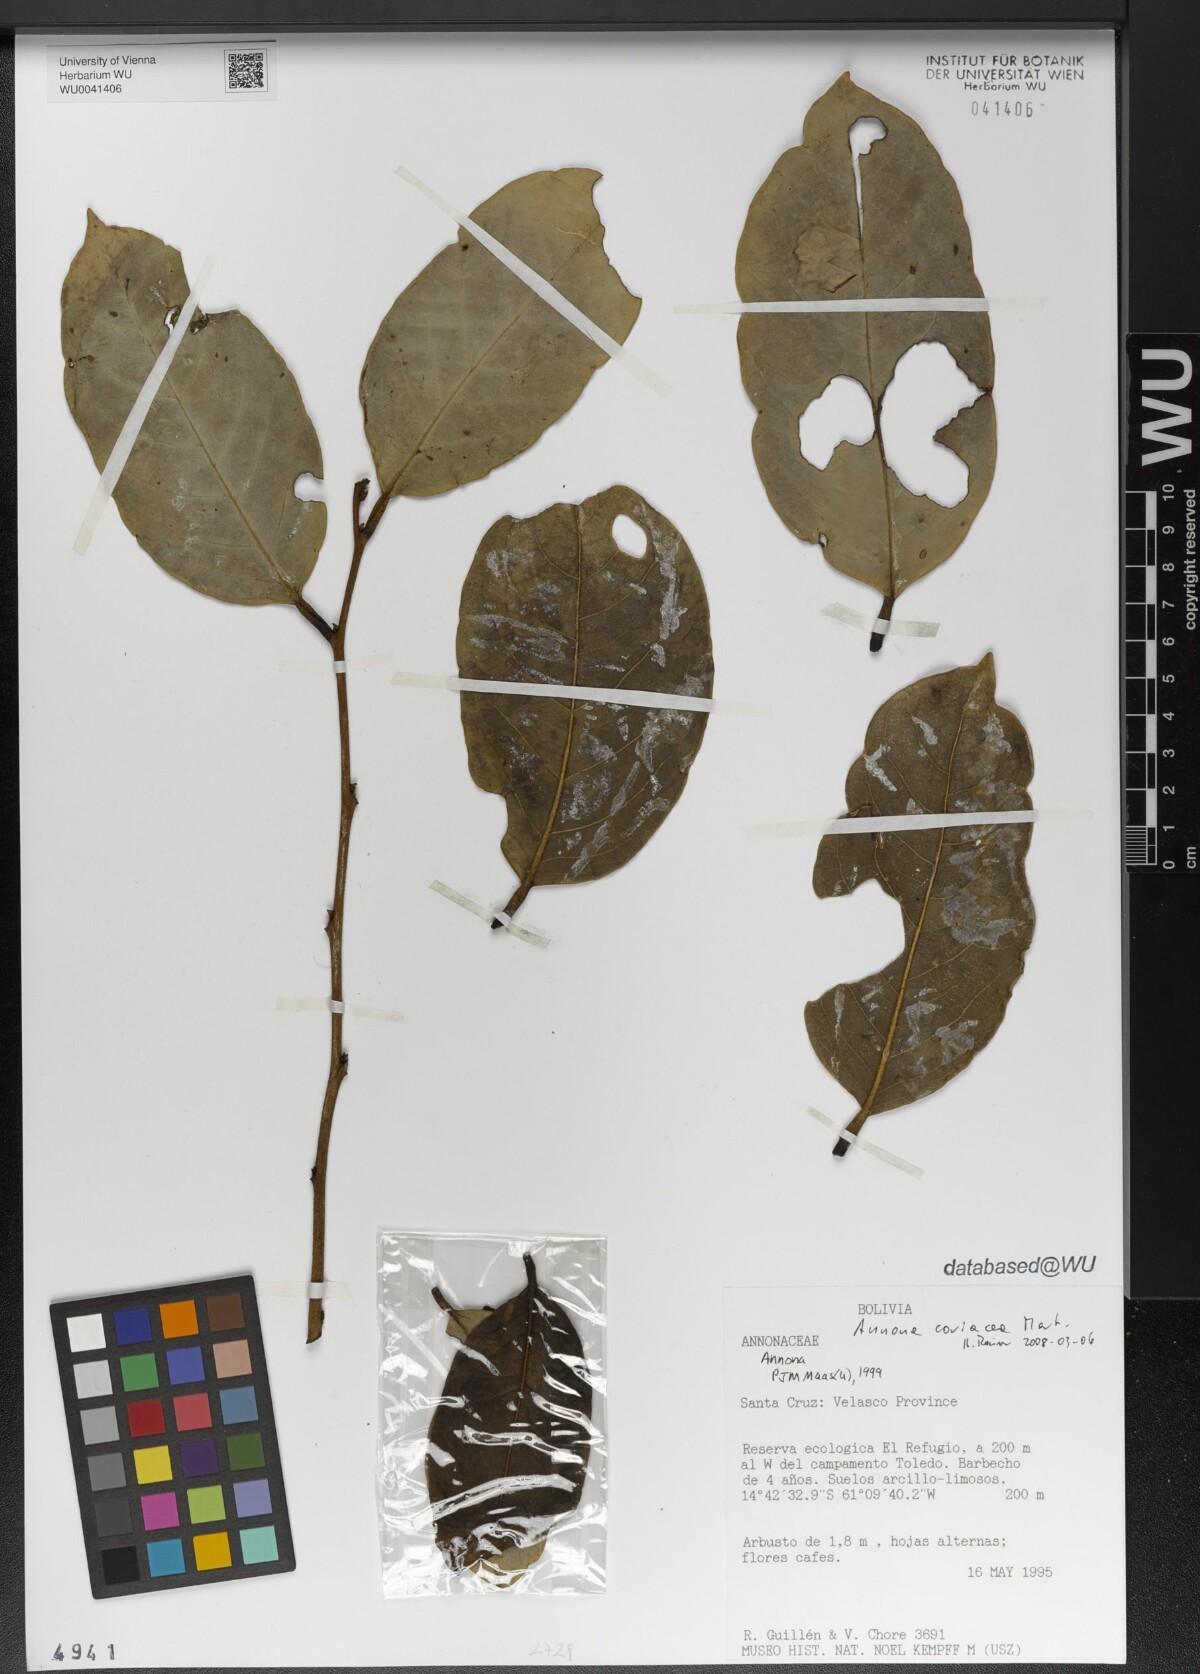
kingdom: Plantae
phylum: Tracheophyta
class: Magnoliopsida
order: Magnoliales
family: Annonaceae
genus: Annona
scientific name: Annona coriacea
